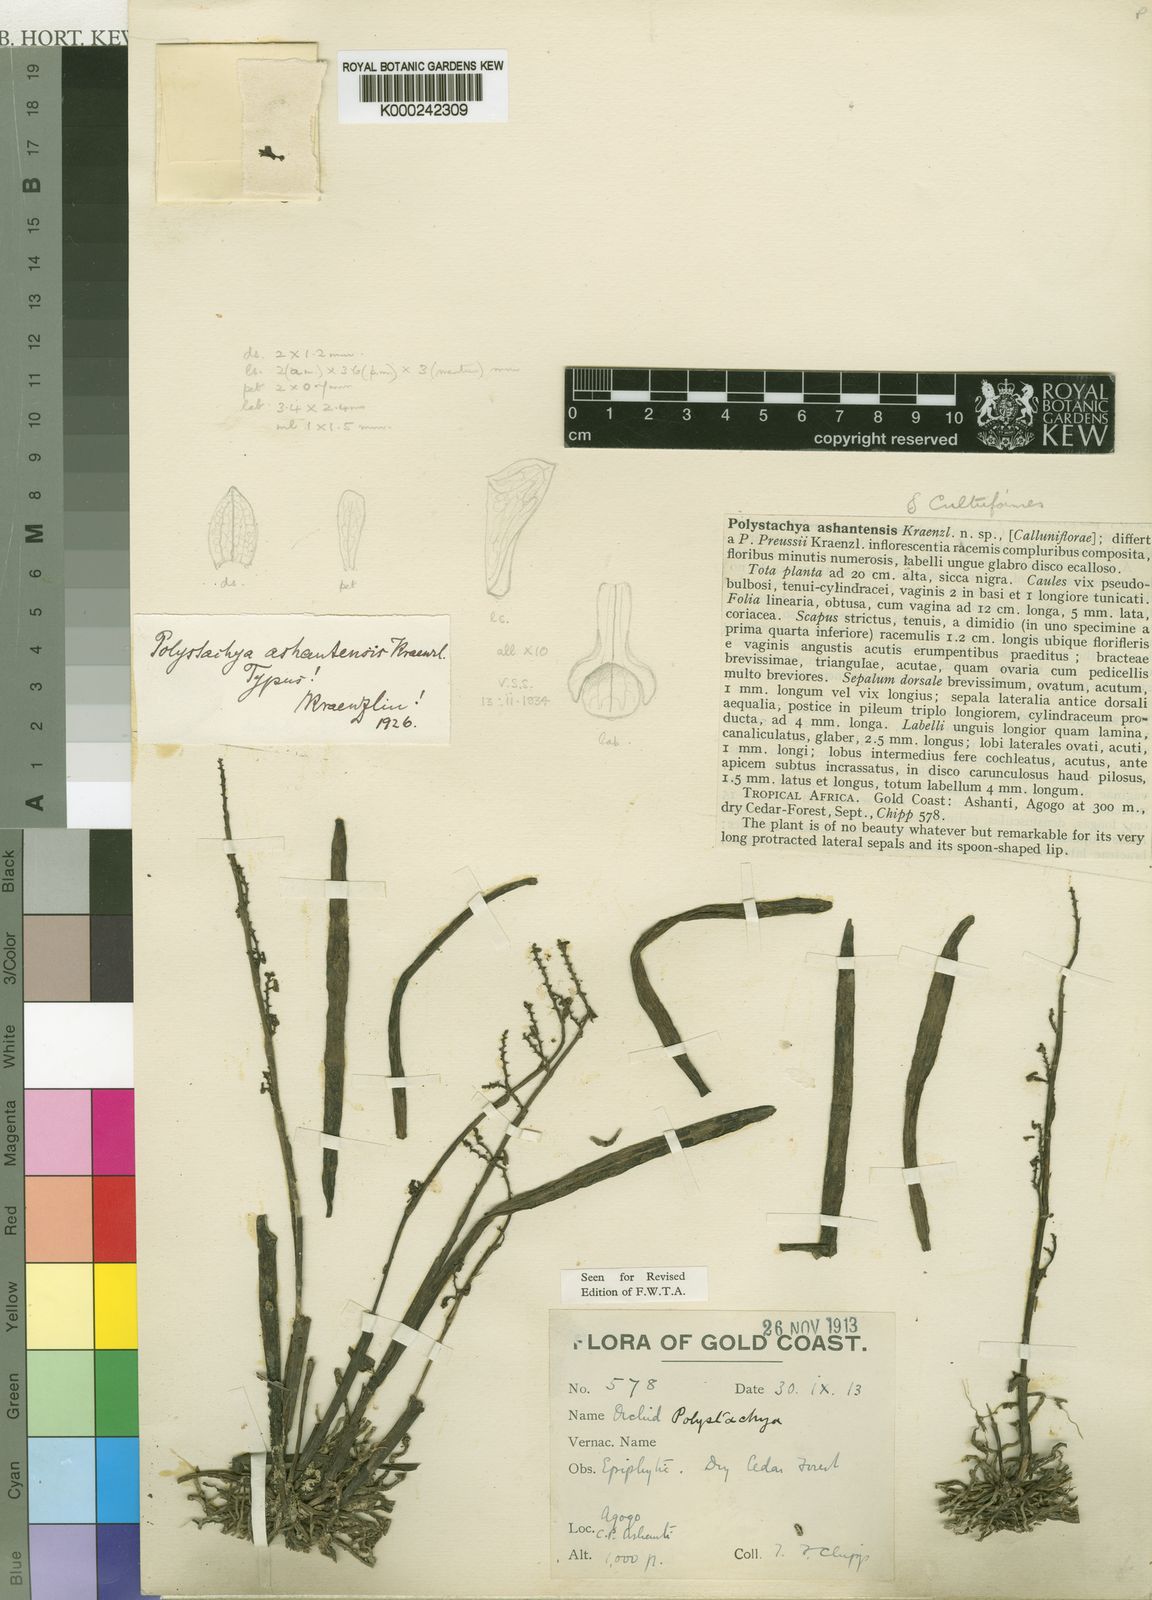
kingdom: Plantae
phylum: Tracheophyta
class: Liliopsida
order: Asparagales
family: Orchidaceae
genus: Polystachya
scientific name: Polystachya tenuissima
